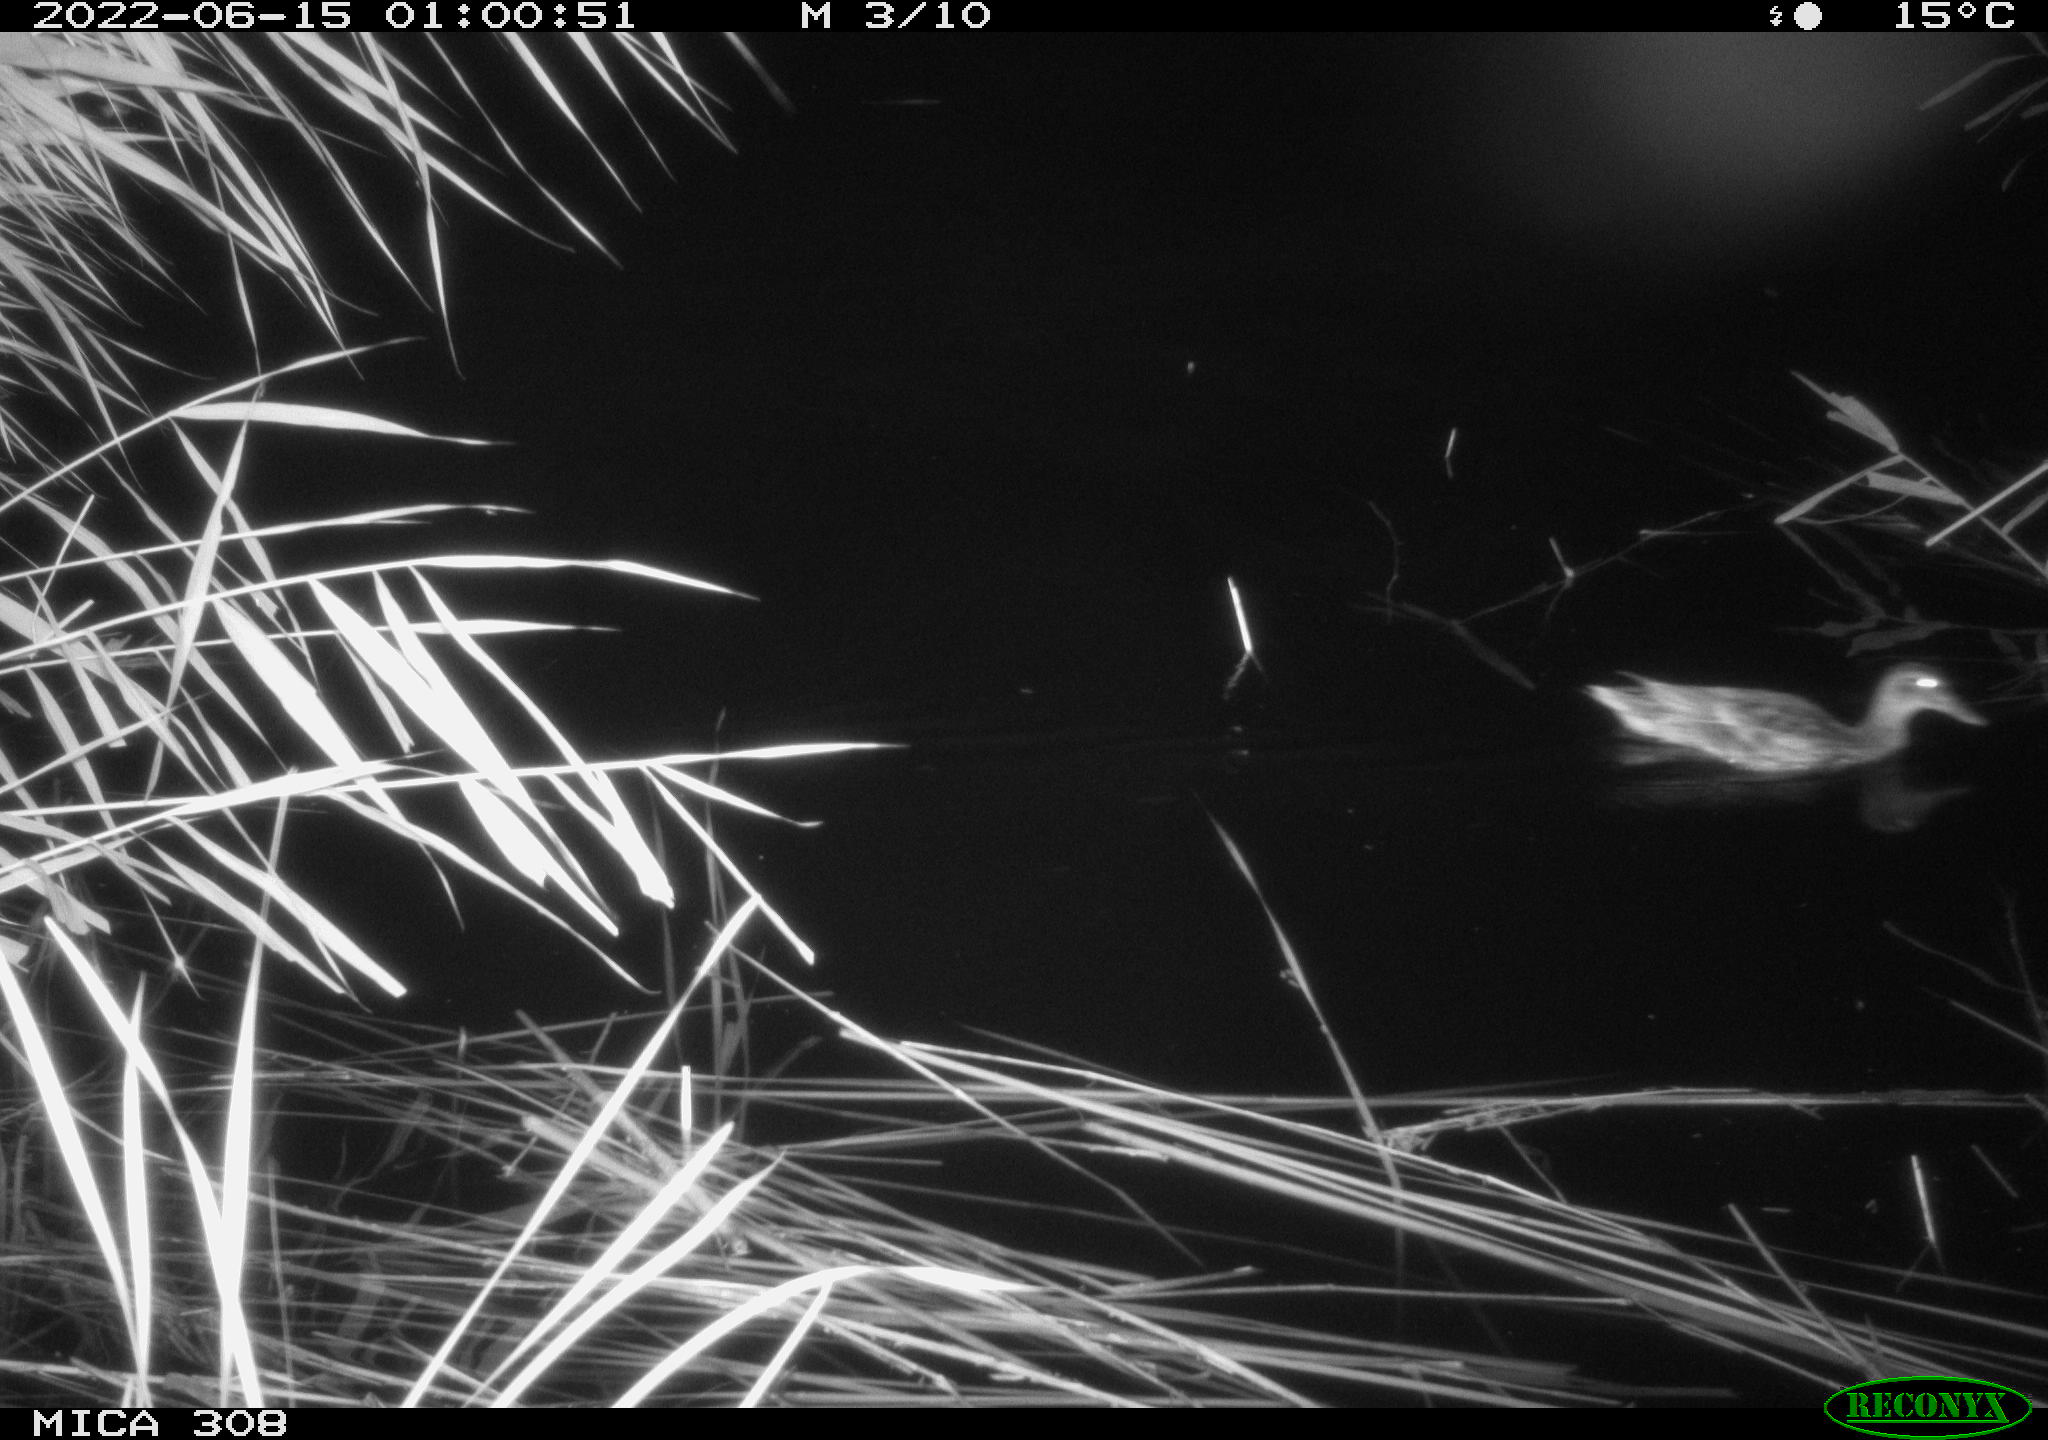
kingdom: Animalia
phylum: Chordata
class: Aves
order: Anseriformes
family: Anatidae
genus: Anas
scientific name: Anas platyrhynchos
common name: Mallard
